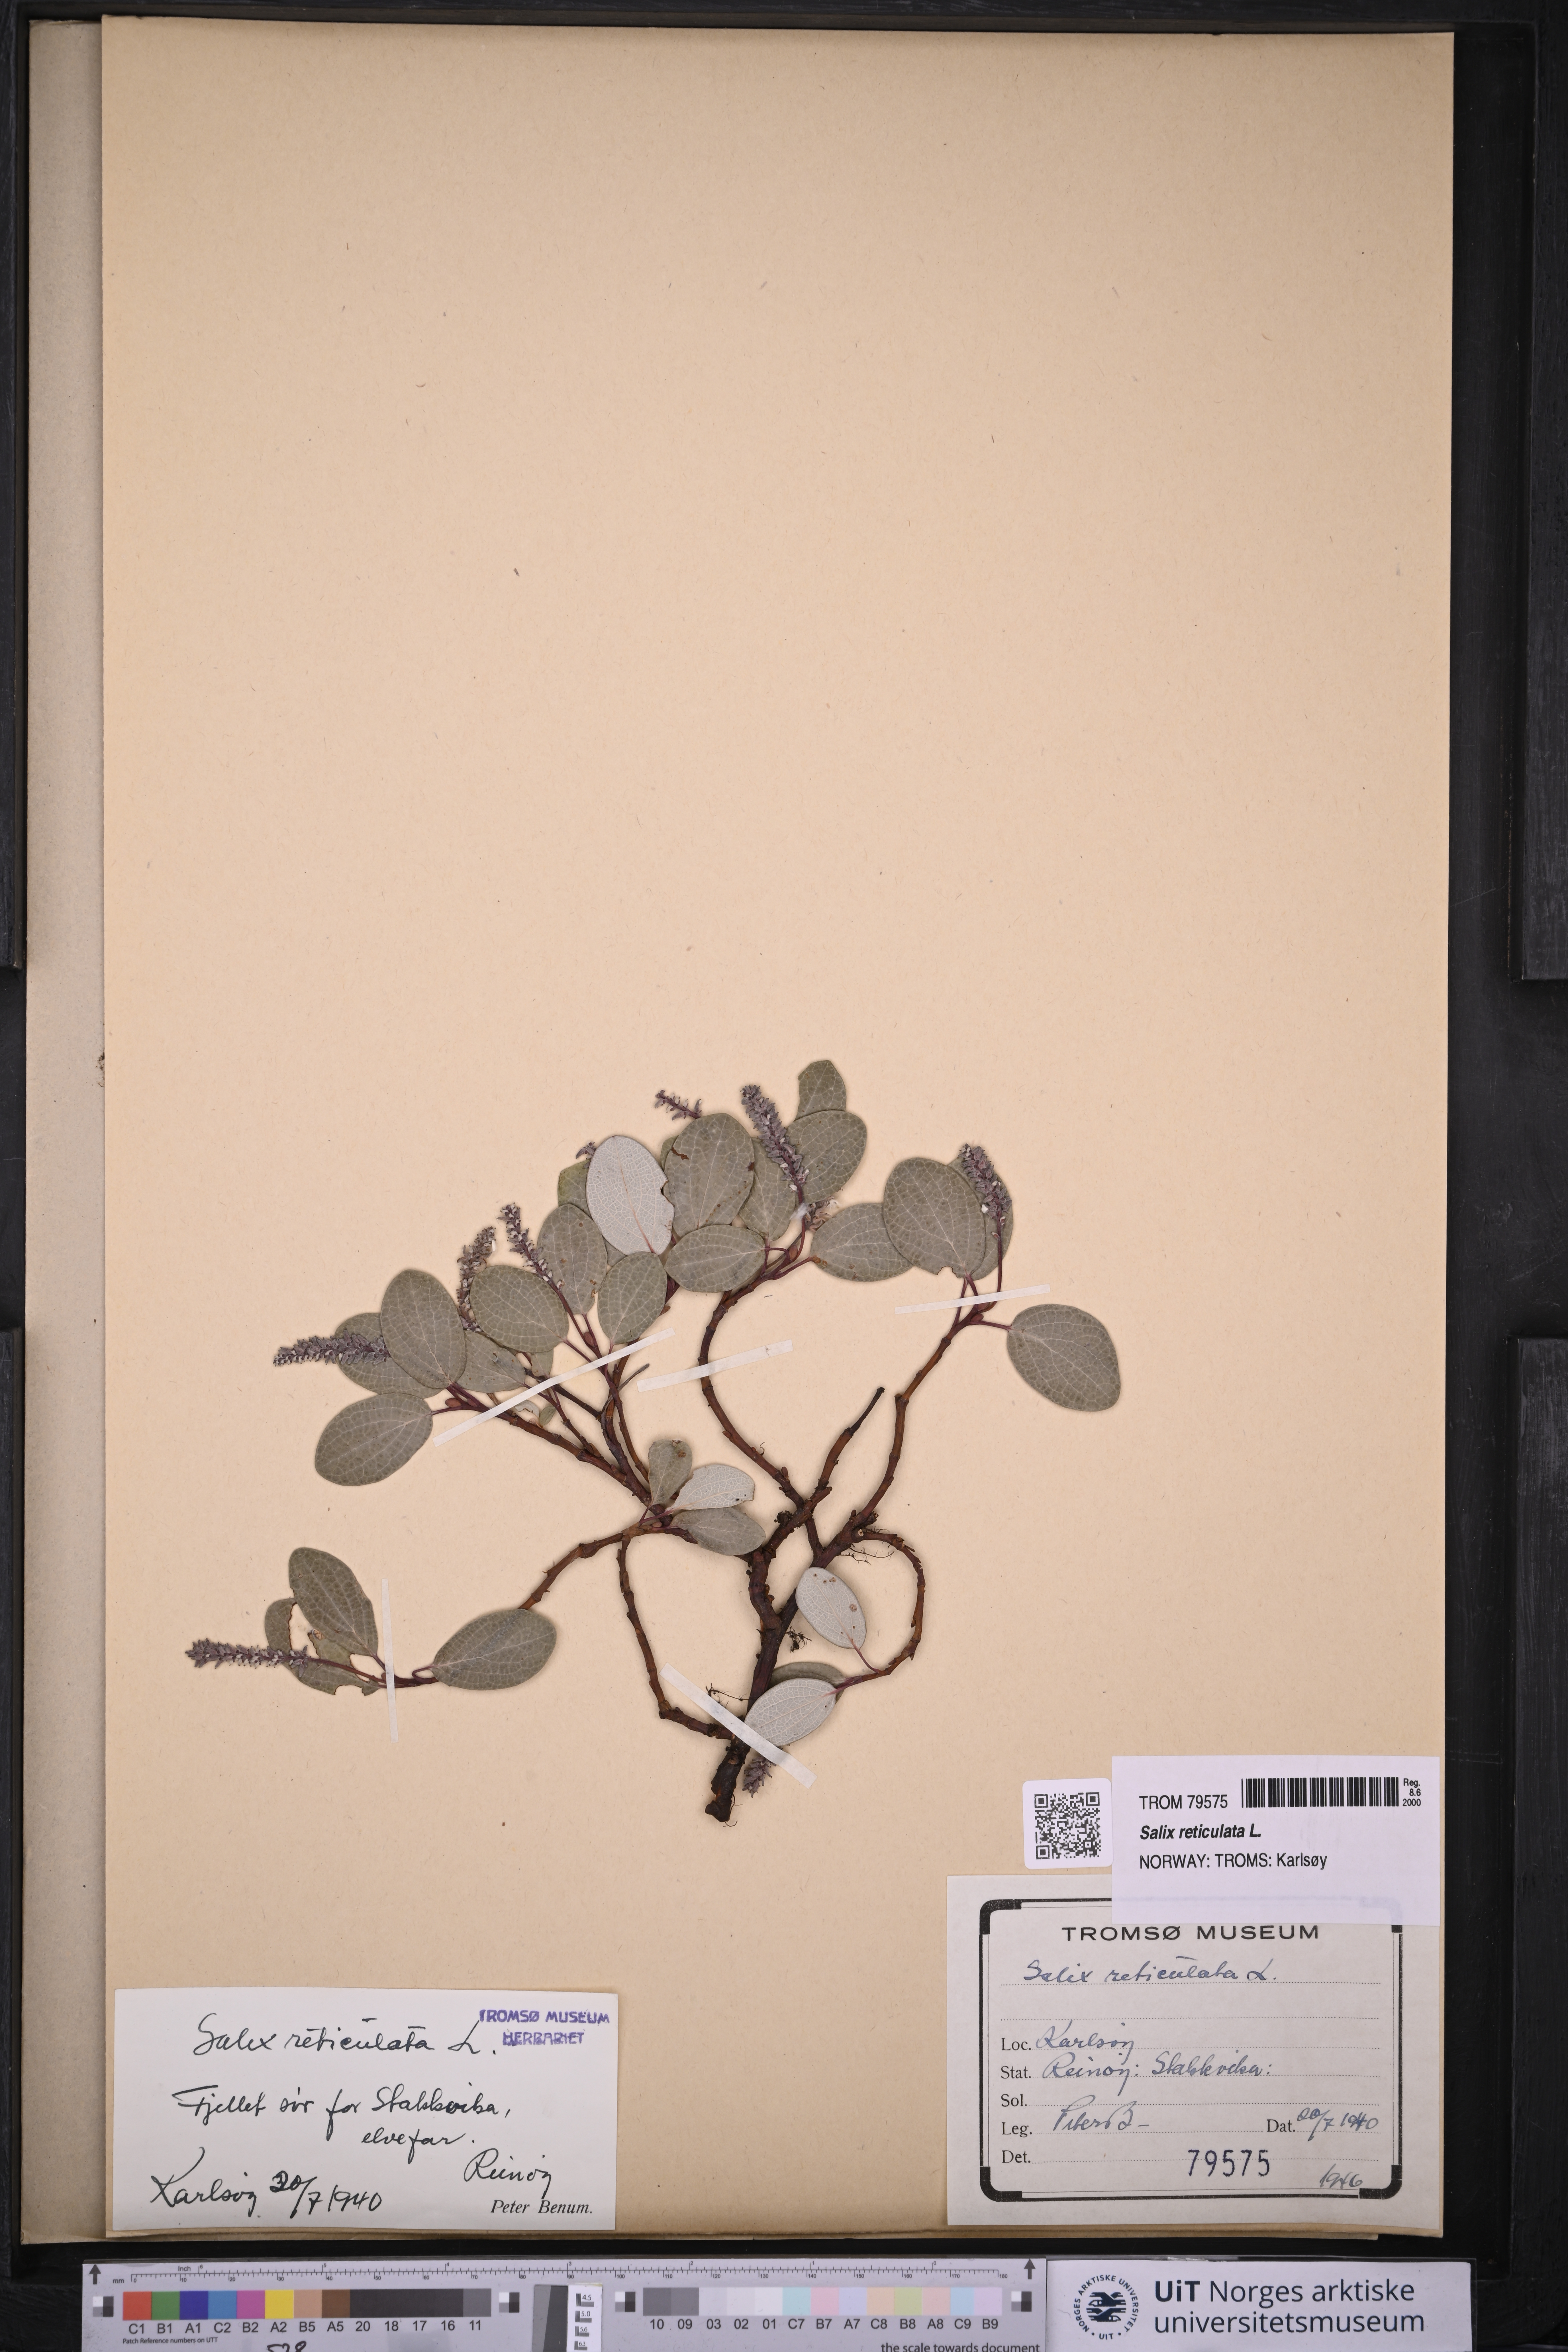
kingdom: Plantae
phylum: Tracheophyta
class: Magnoliopsida
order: Malpighiales
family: Salicaceae
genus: Salix
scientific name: Salix reticulata
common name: Net-leaved willow
